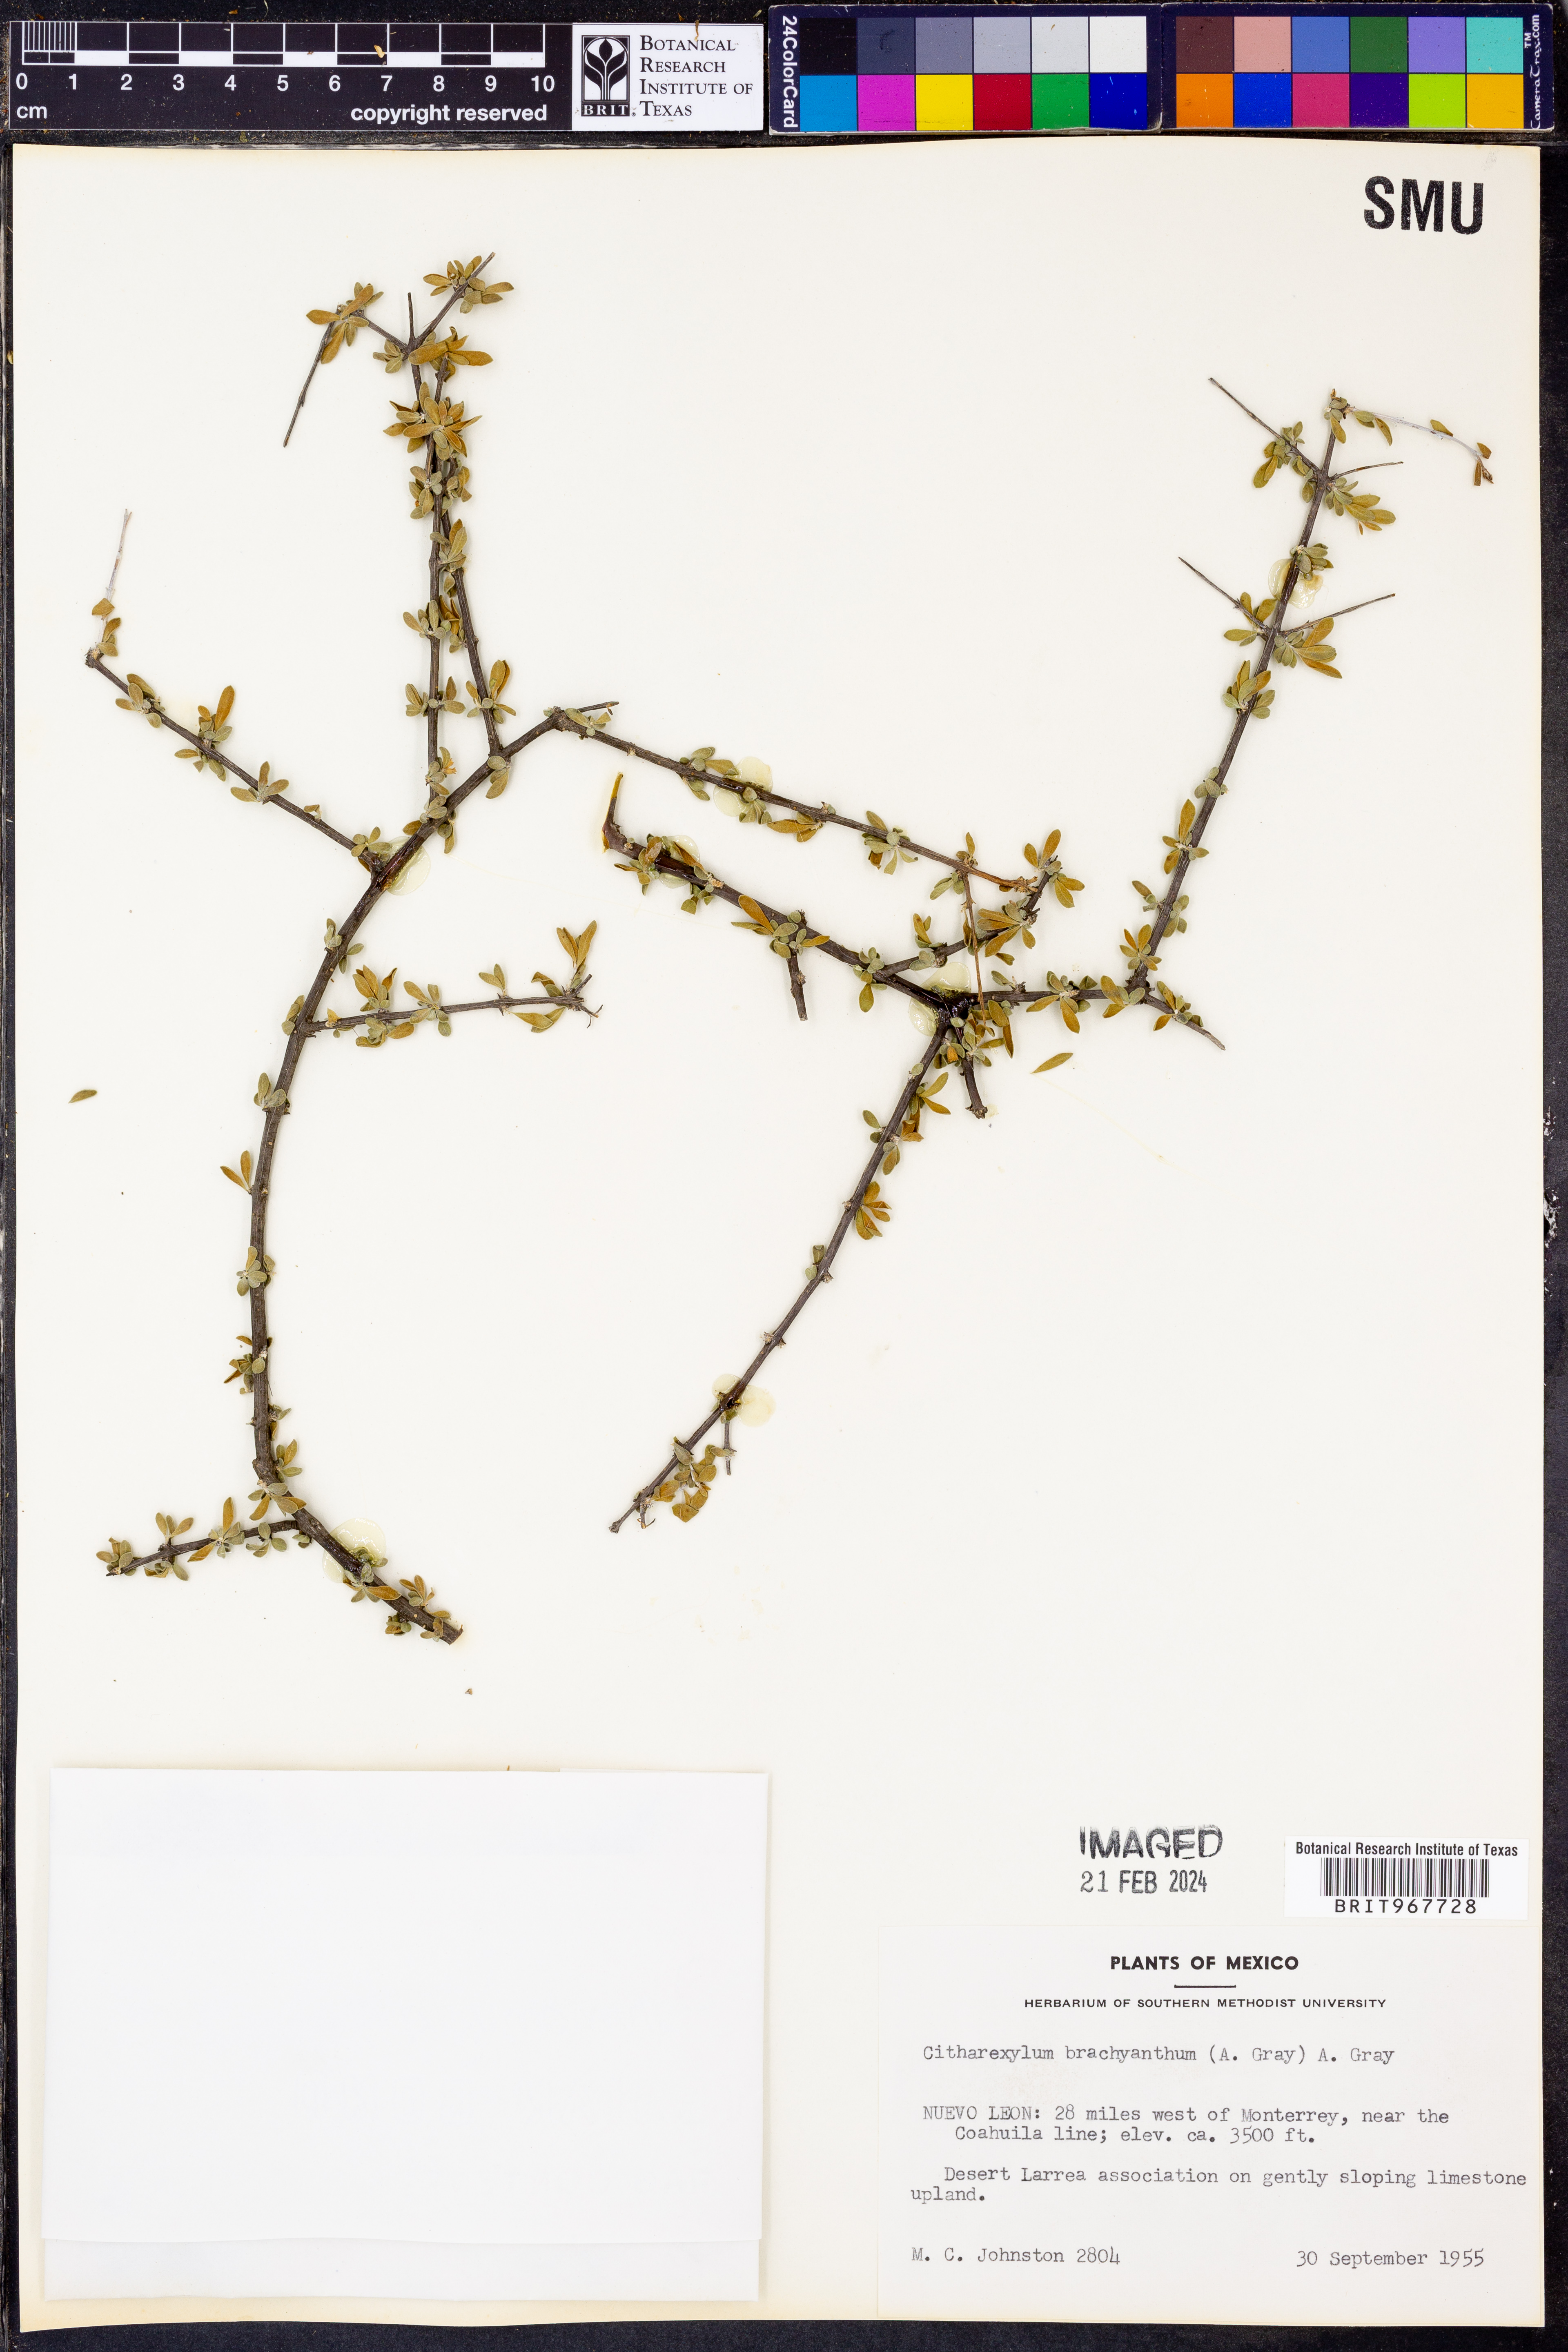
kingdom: Plantae
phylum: Tracheophyta
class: Magnoliopsida
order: Lamiales
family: Verbenaceae
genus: Citharexylum
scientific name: Citharexylum
